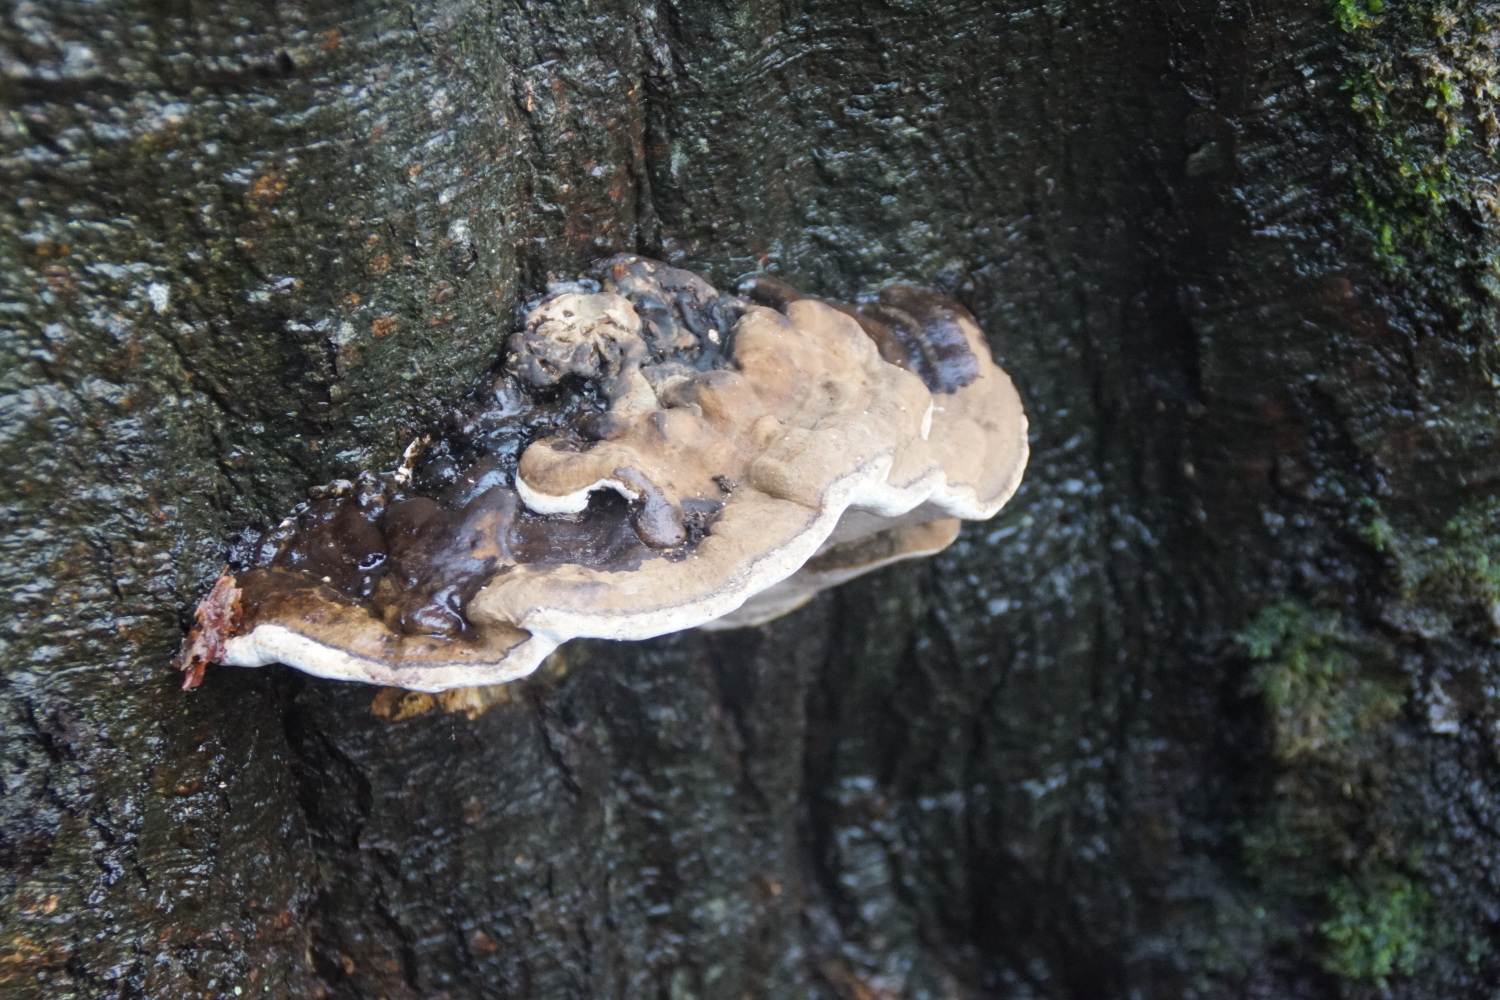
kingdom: Fungi
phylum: Basidiomycota
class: Agaricomycetes
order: Polyporales
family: Polyporaceae
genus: Ganoderma
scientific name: Ganoderma applanatum
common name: flad lakporesvamp
